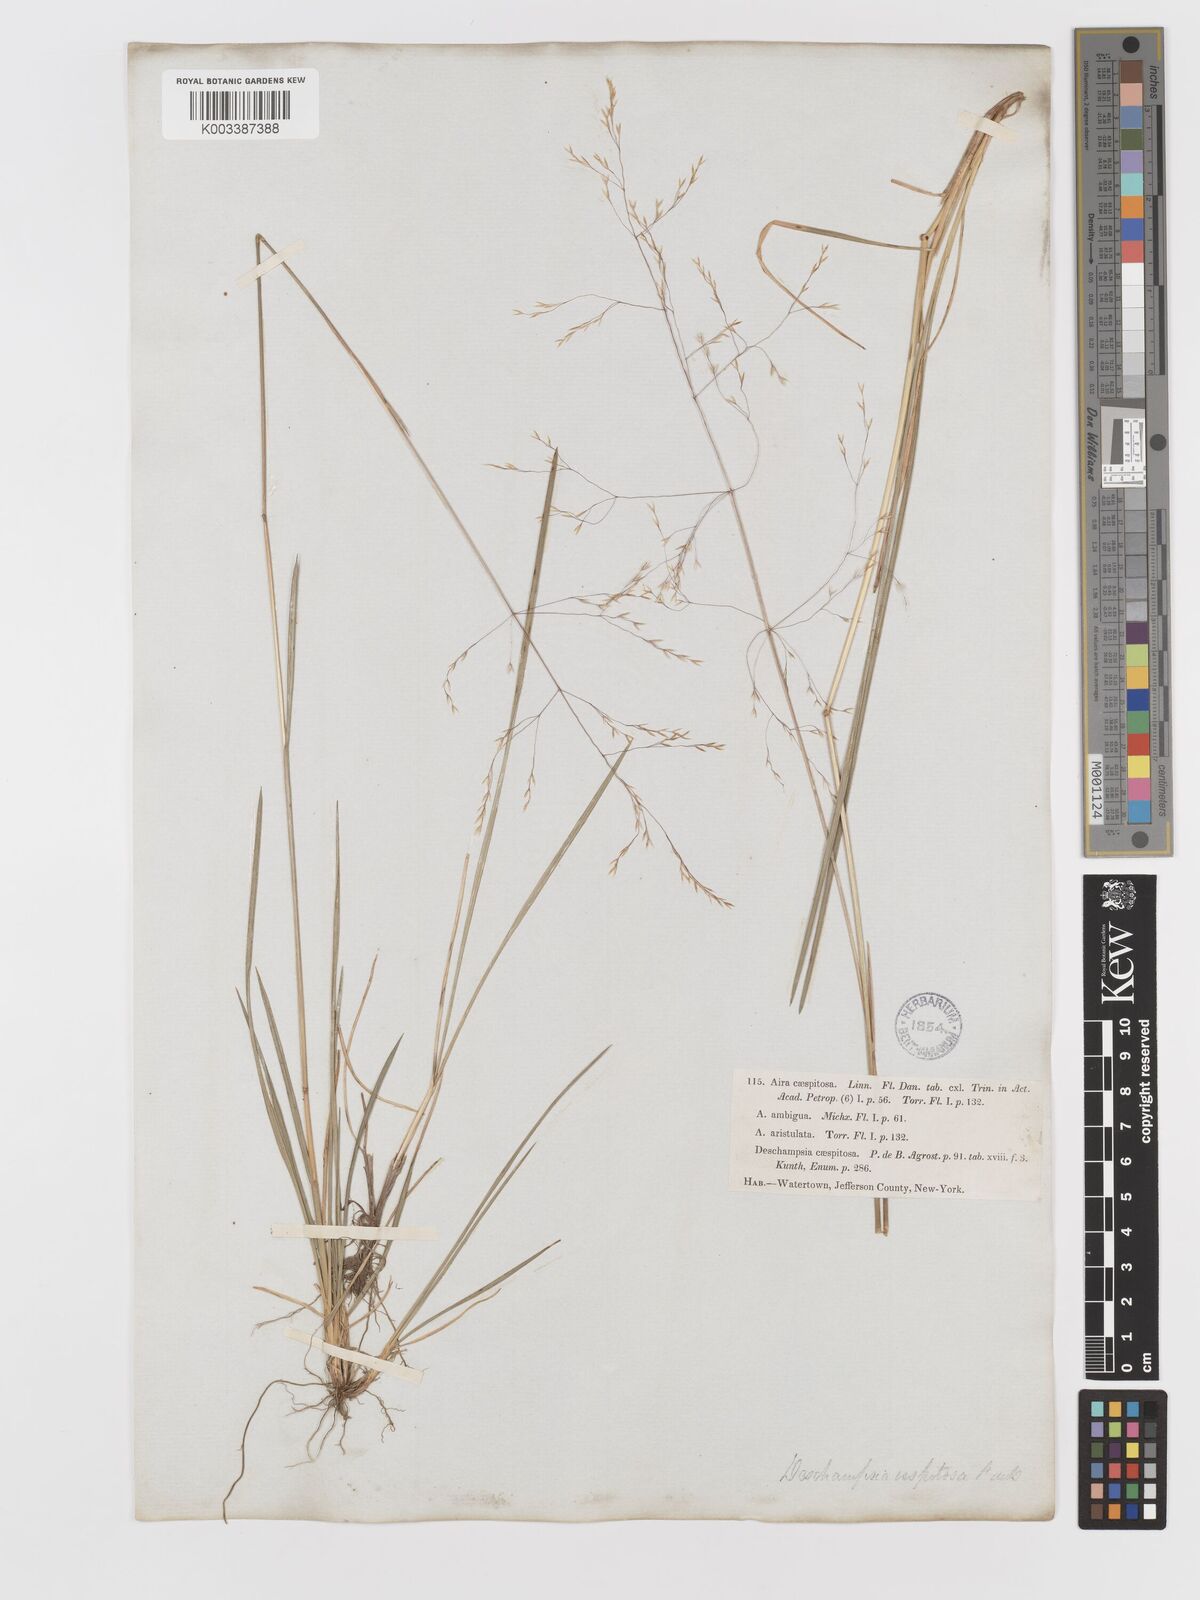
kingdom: Plantae
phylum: Tracheophyta
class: Liliopsida
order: Poales
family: Poaceae
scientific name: Poaceae
